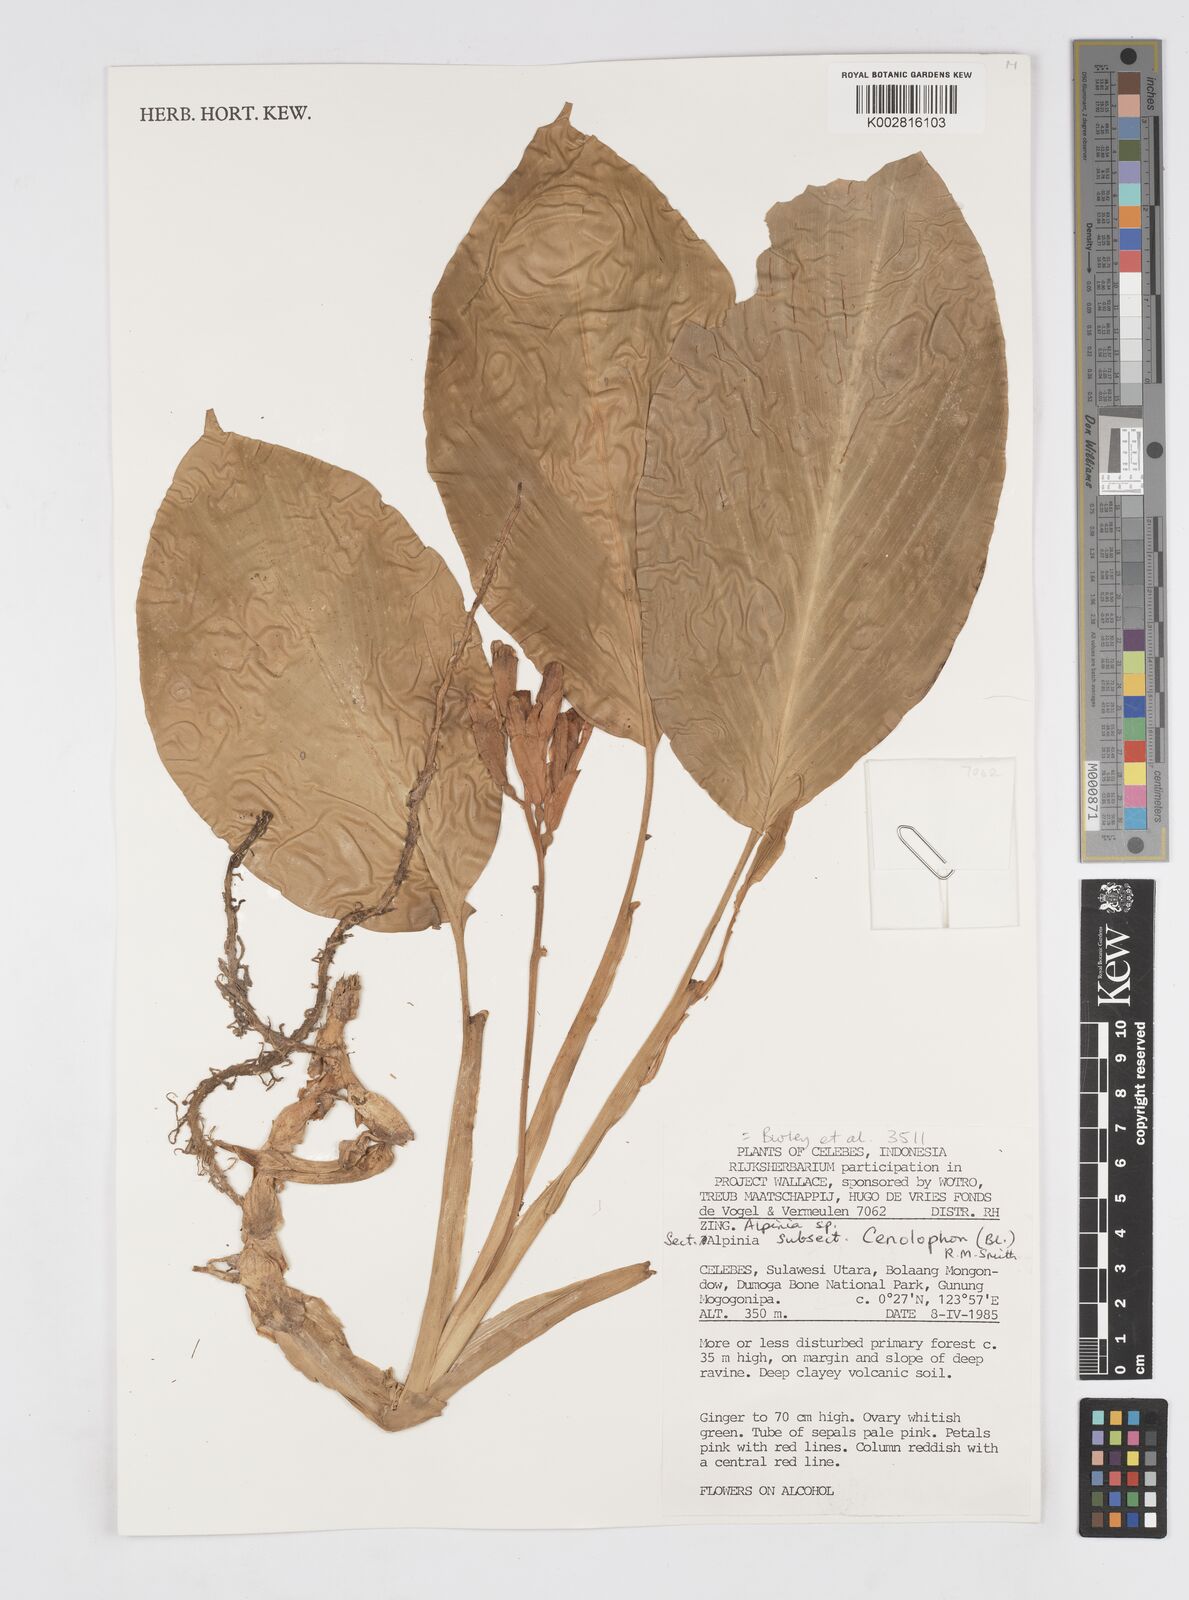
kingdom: Plantae
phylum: Tracheophyta
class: Liliopsida
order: Zingiberales
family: Zingiberaceae
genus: Alpinia
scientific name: Alpinia
